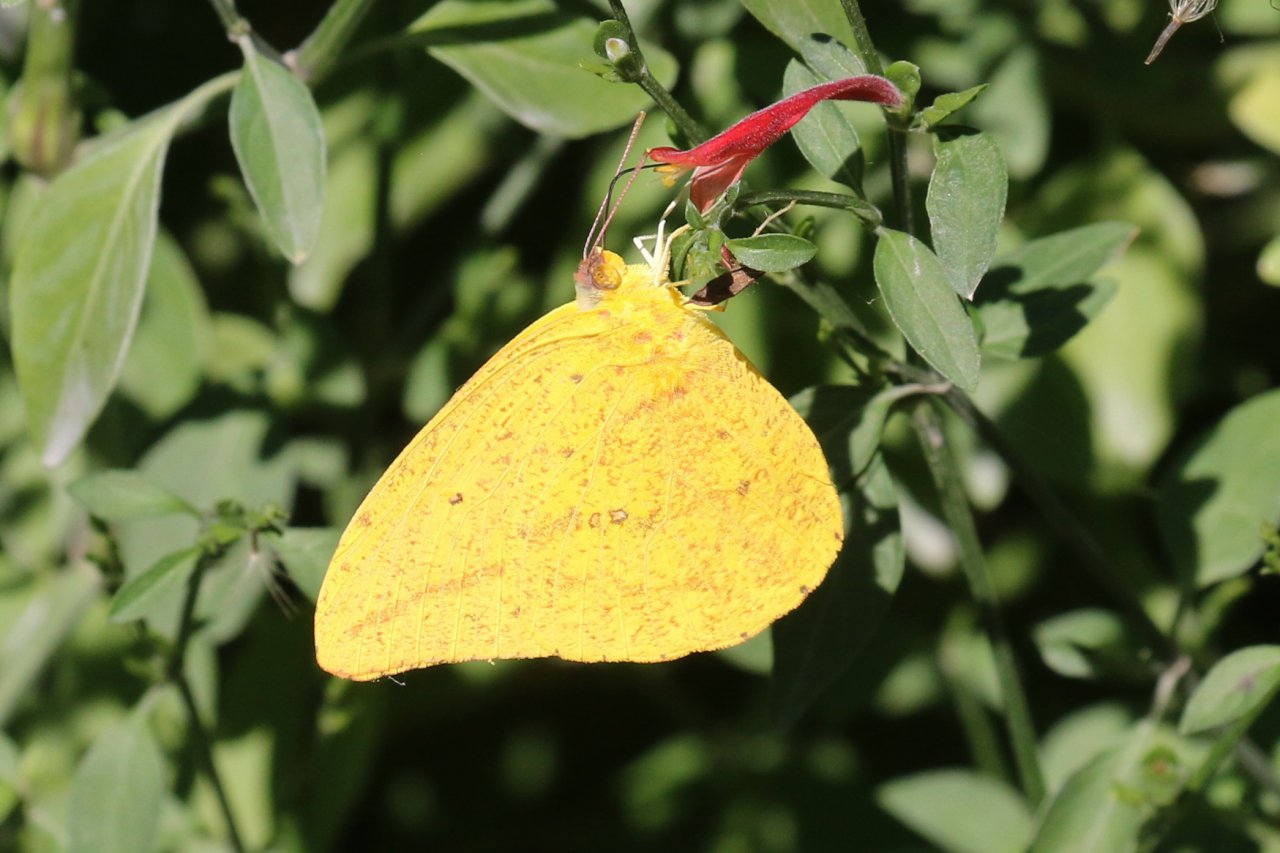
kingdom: Animalia
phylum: Arthropoda
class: Insecta
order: Lepidoptera
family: Pieridae
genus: Phoebis
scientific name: Phoebis agarithe
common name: Large Orange Sulphur
